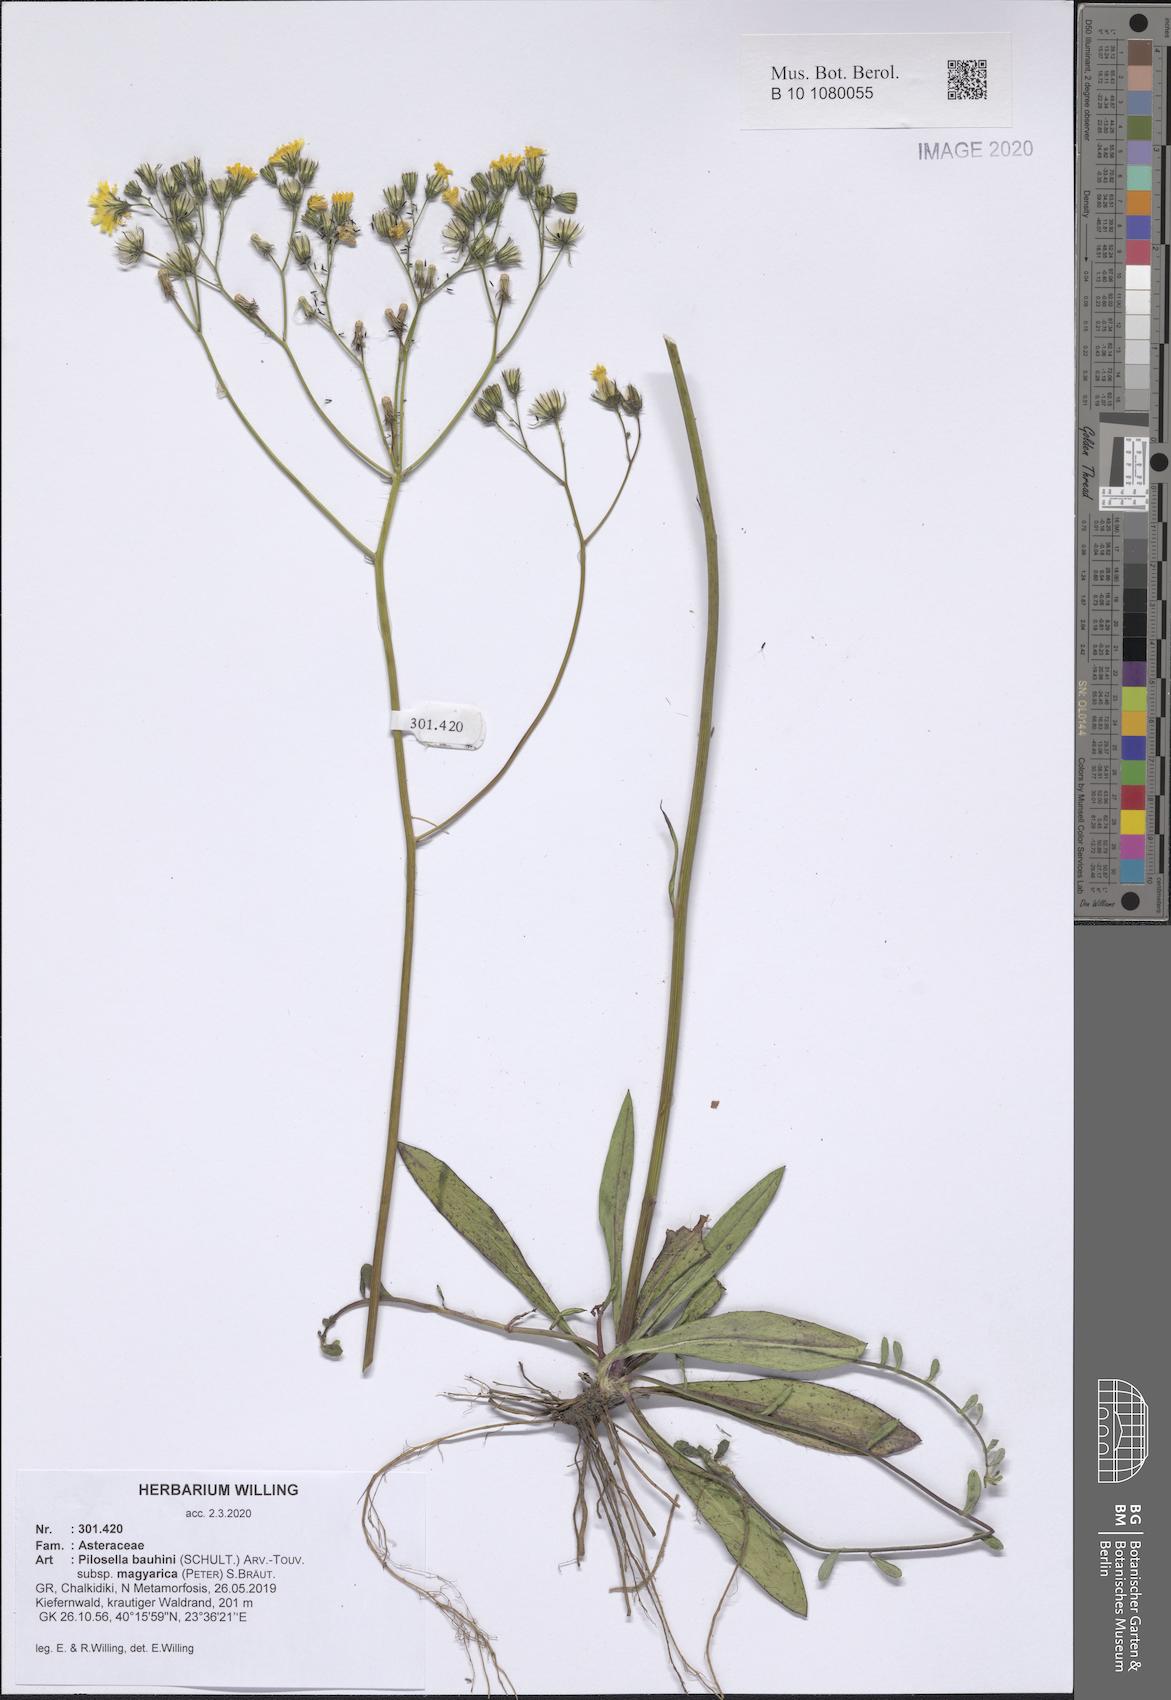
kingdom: Plantae
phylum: Tracheophyta
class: Magnoliopsida
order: Asterales
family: Asteraceae
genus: Pilosella
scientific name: Pilosella bauhini
